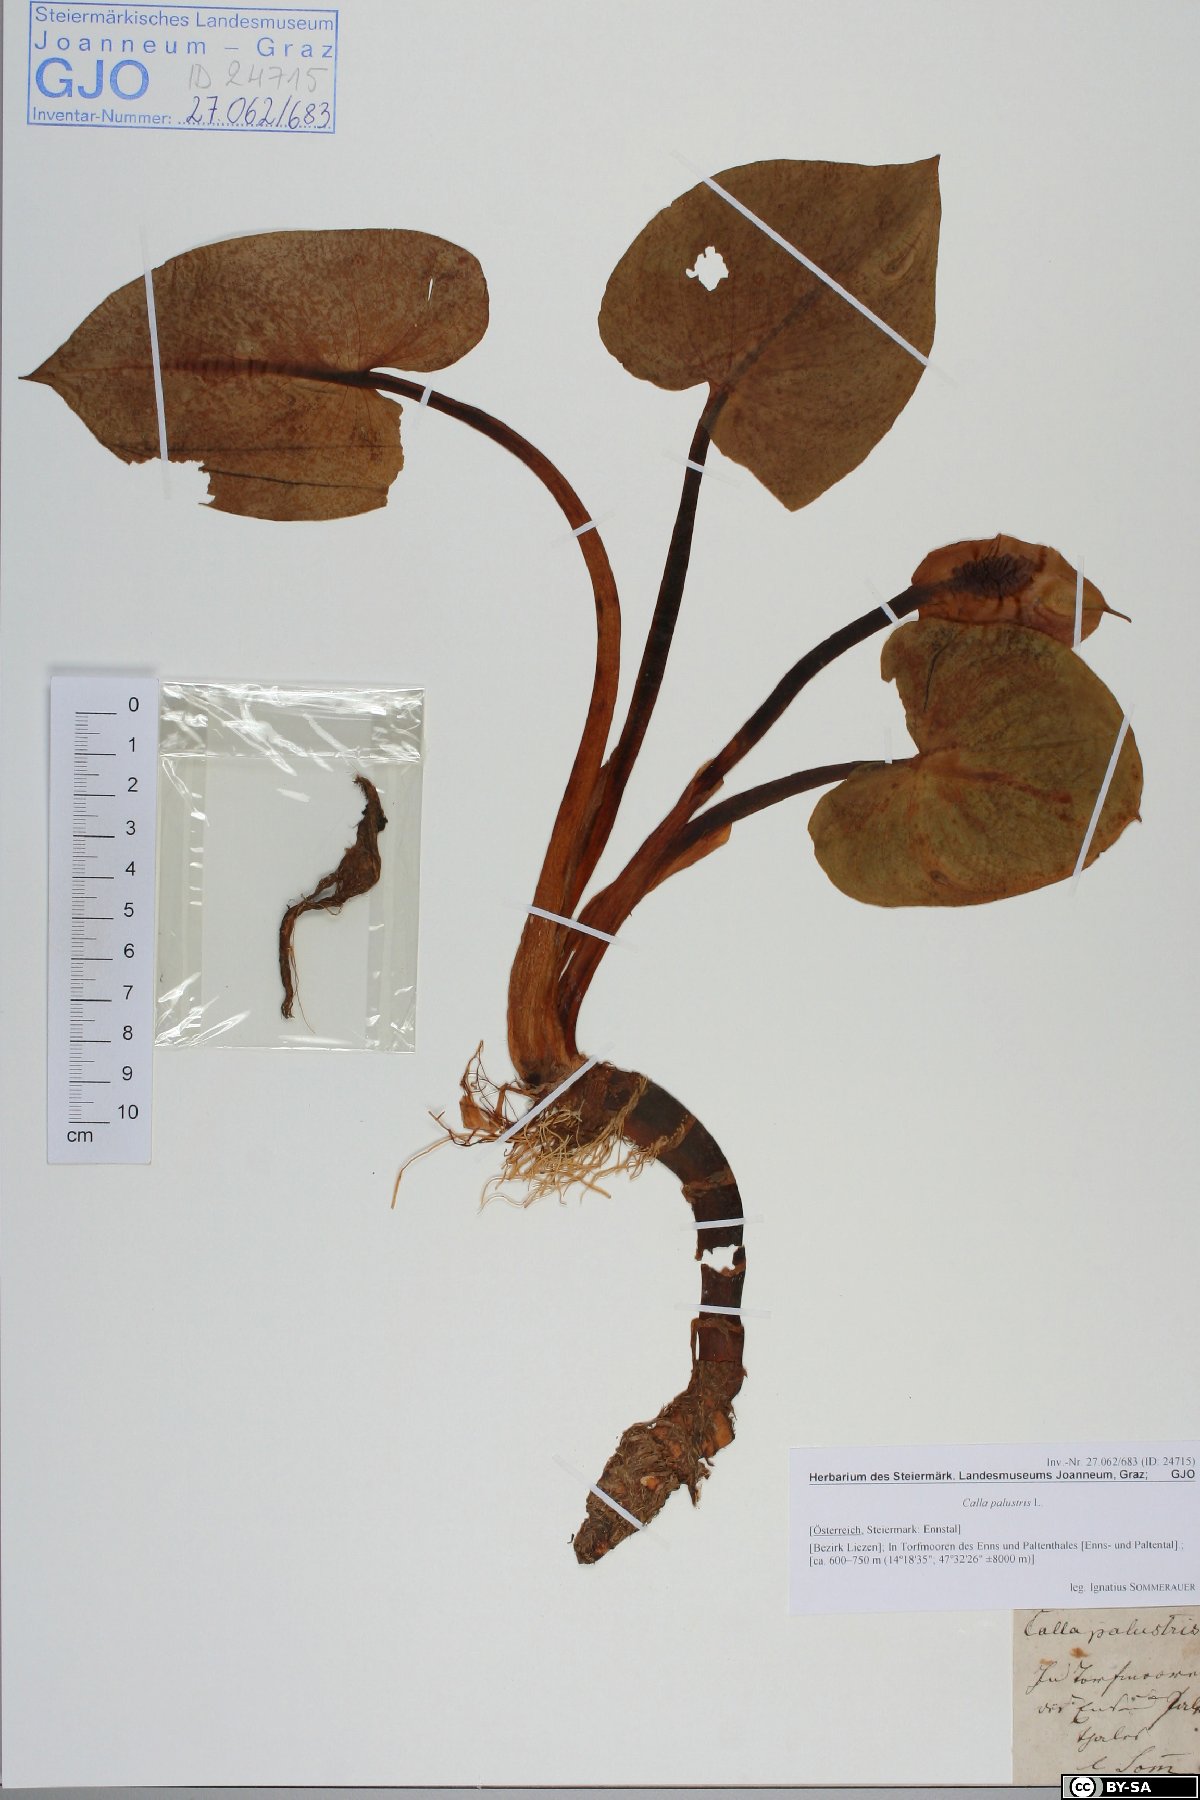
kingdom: Plantae
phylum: Tracheophyta
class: Liliopsida
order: Alismatales
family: Araceae
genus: Calla
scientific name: Calla palustris
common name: Bog arum
